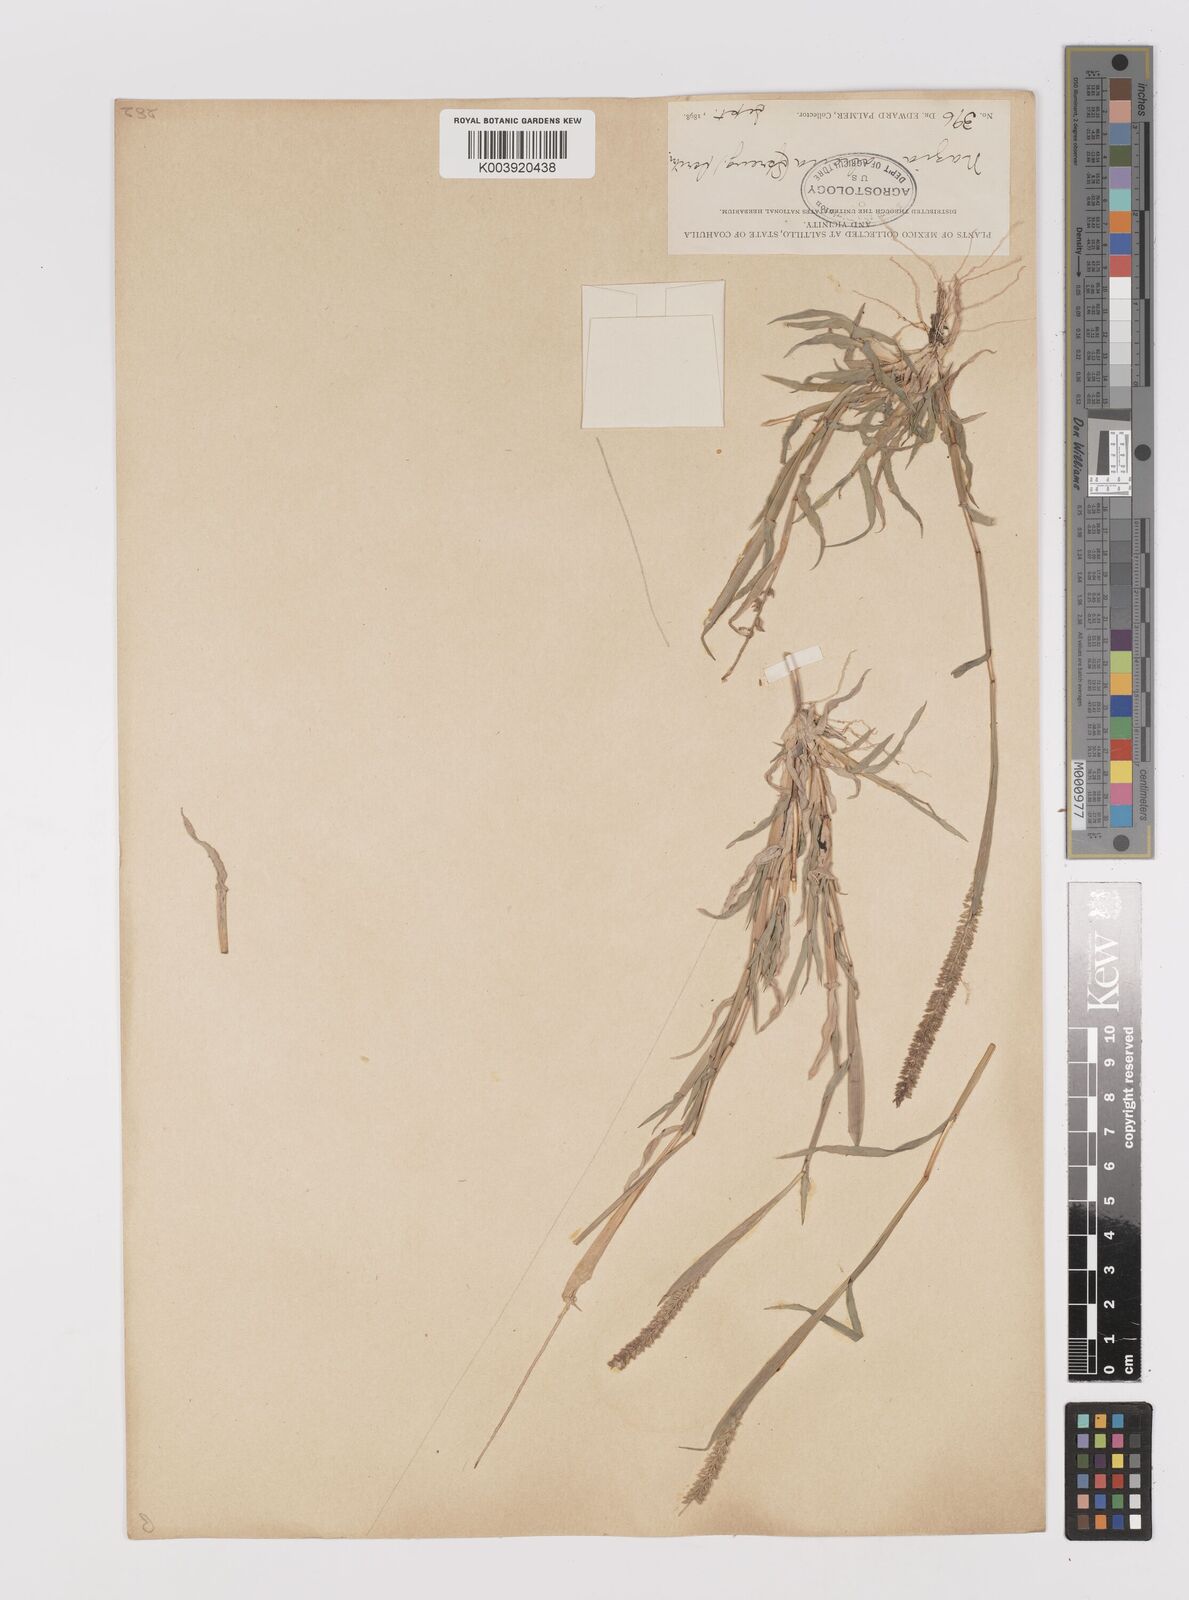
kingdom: Plantae
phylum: Tracheophyta
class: Liliopsida
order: Poales
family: Poaceae
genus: Tragus
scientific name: Tragus berteronianus
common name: African bur-grass
